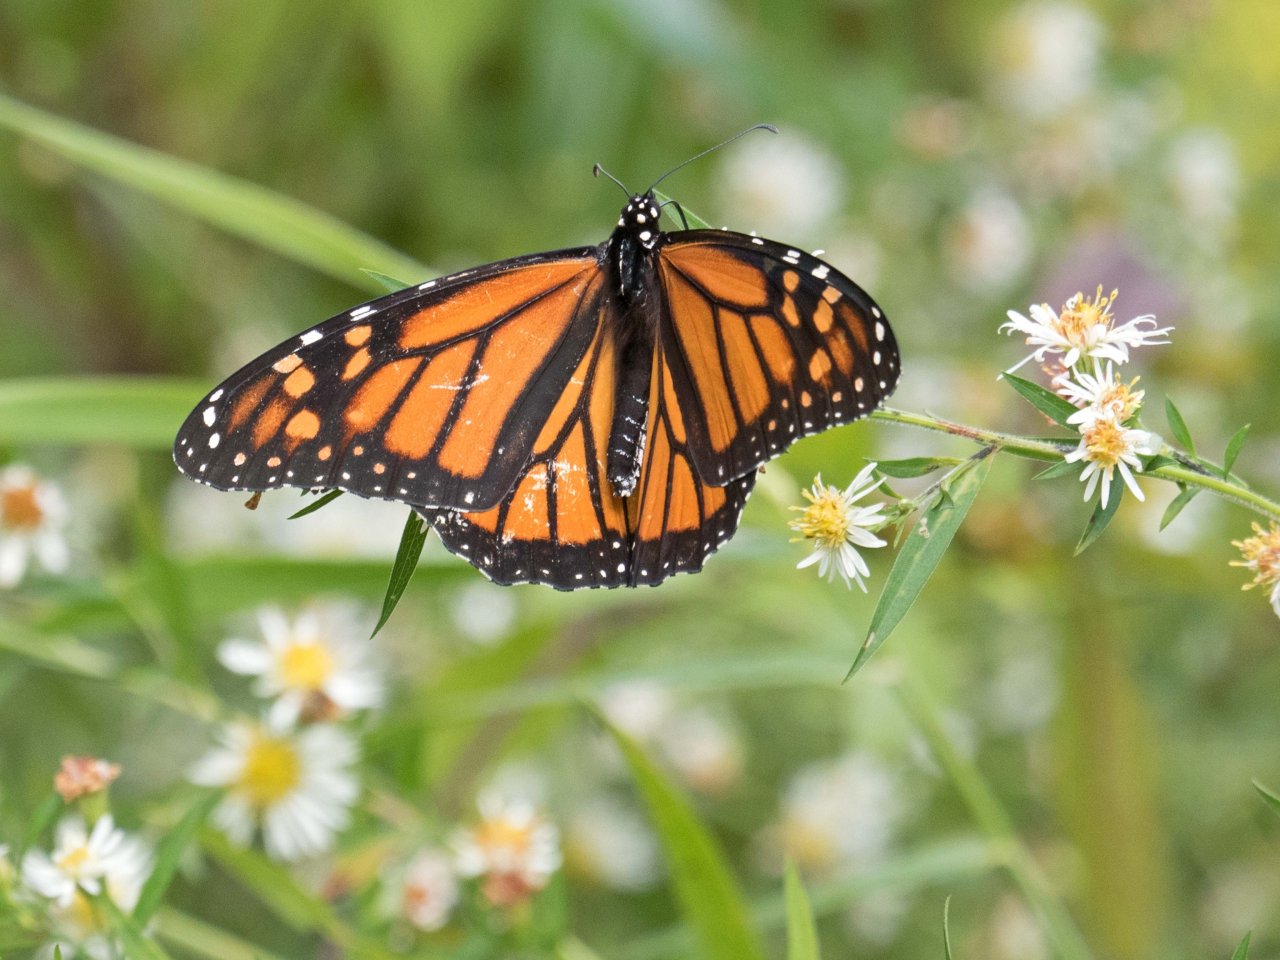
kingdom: Animalia
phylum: Arthropoda
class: Insecta
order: Lepidoptera
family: Nymphalidae
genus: Danaus
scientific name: Danaus plexippus
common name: Monarch
